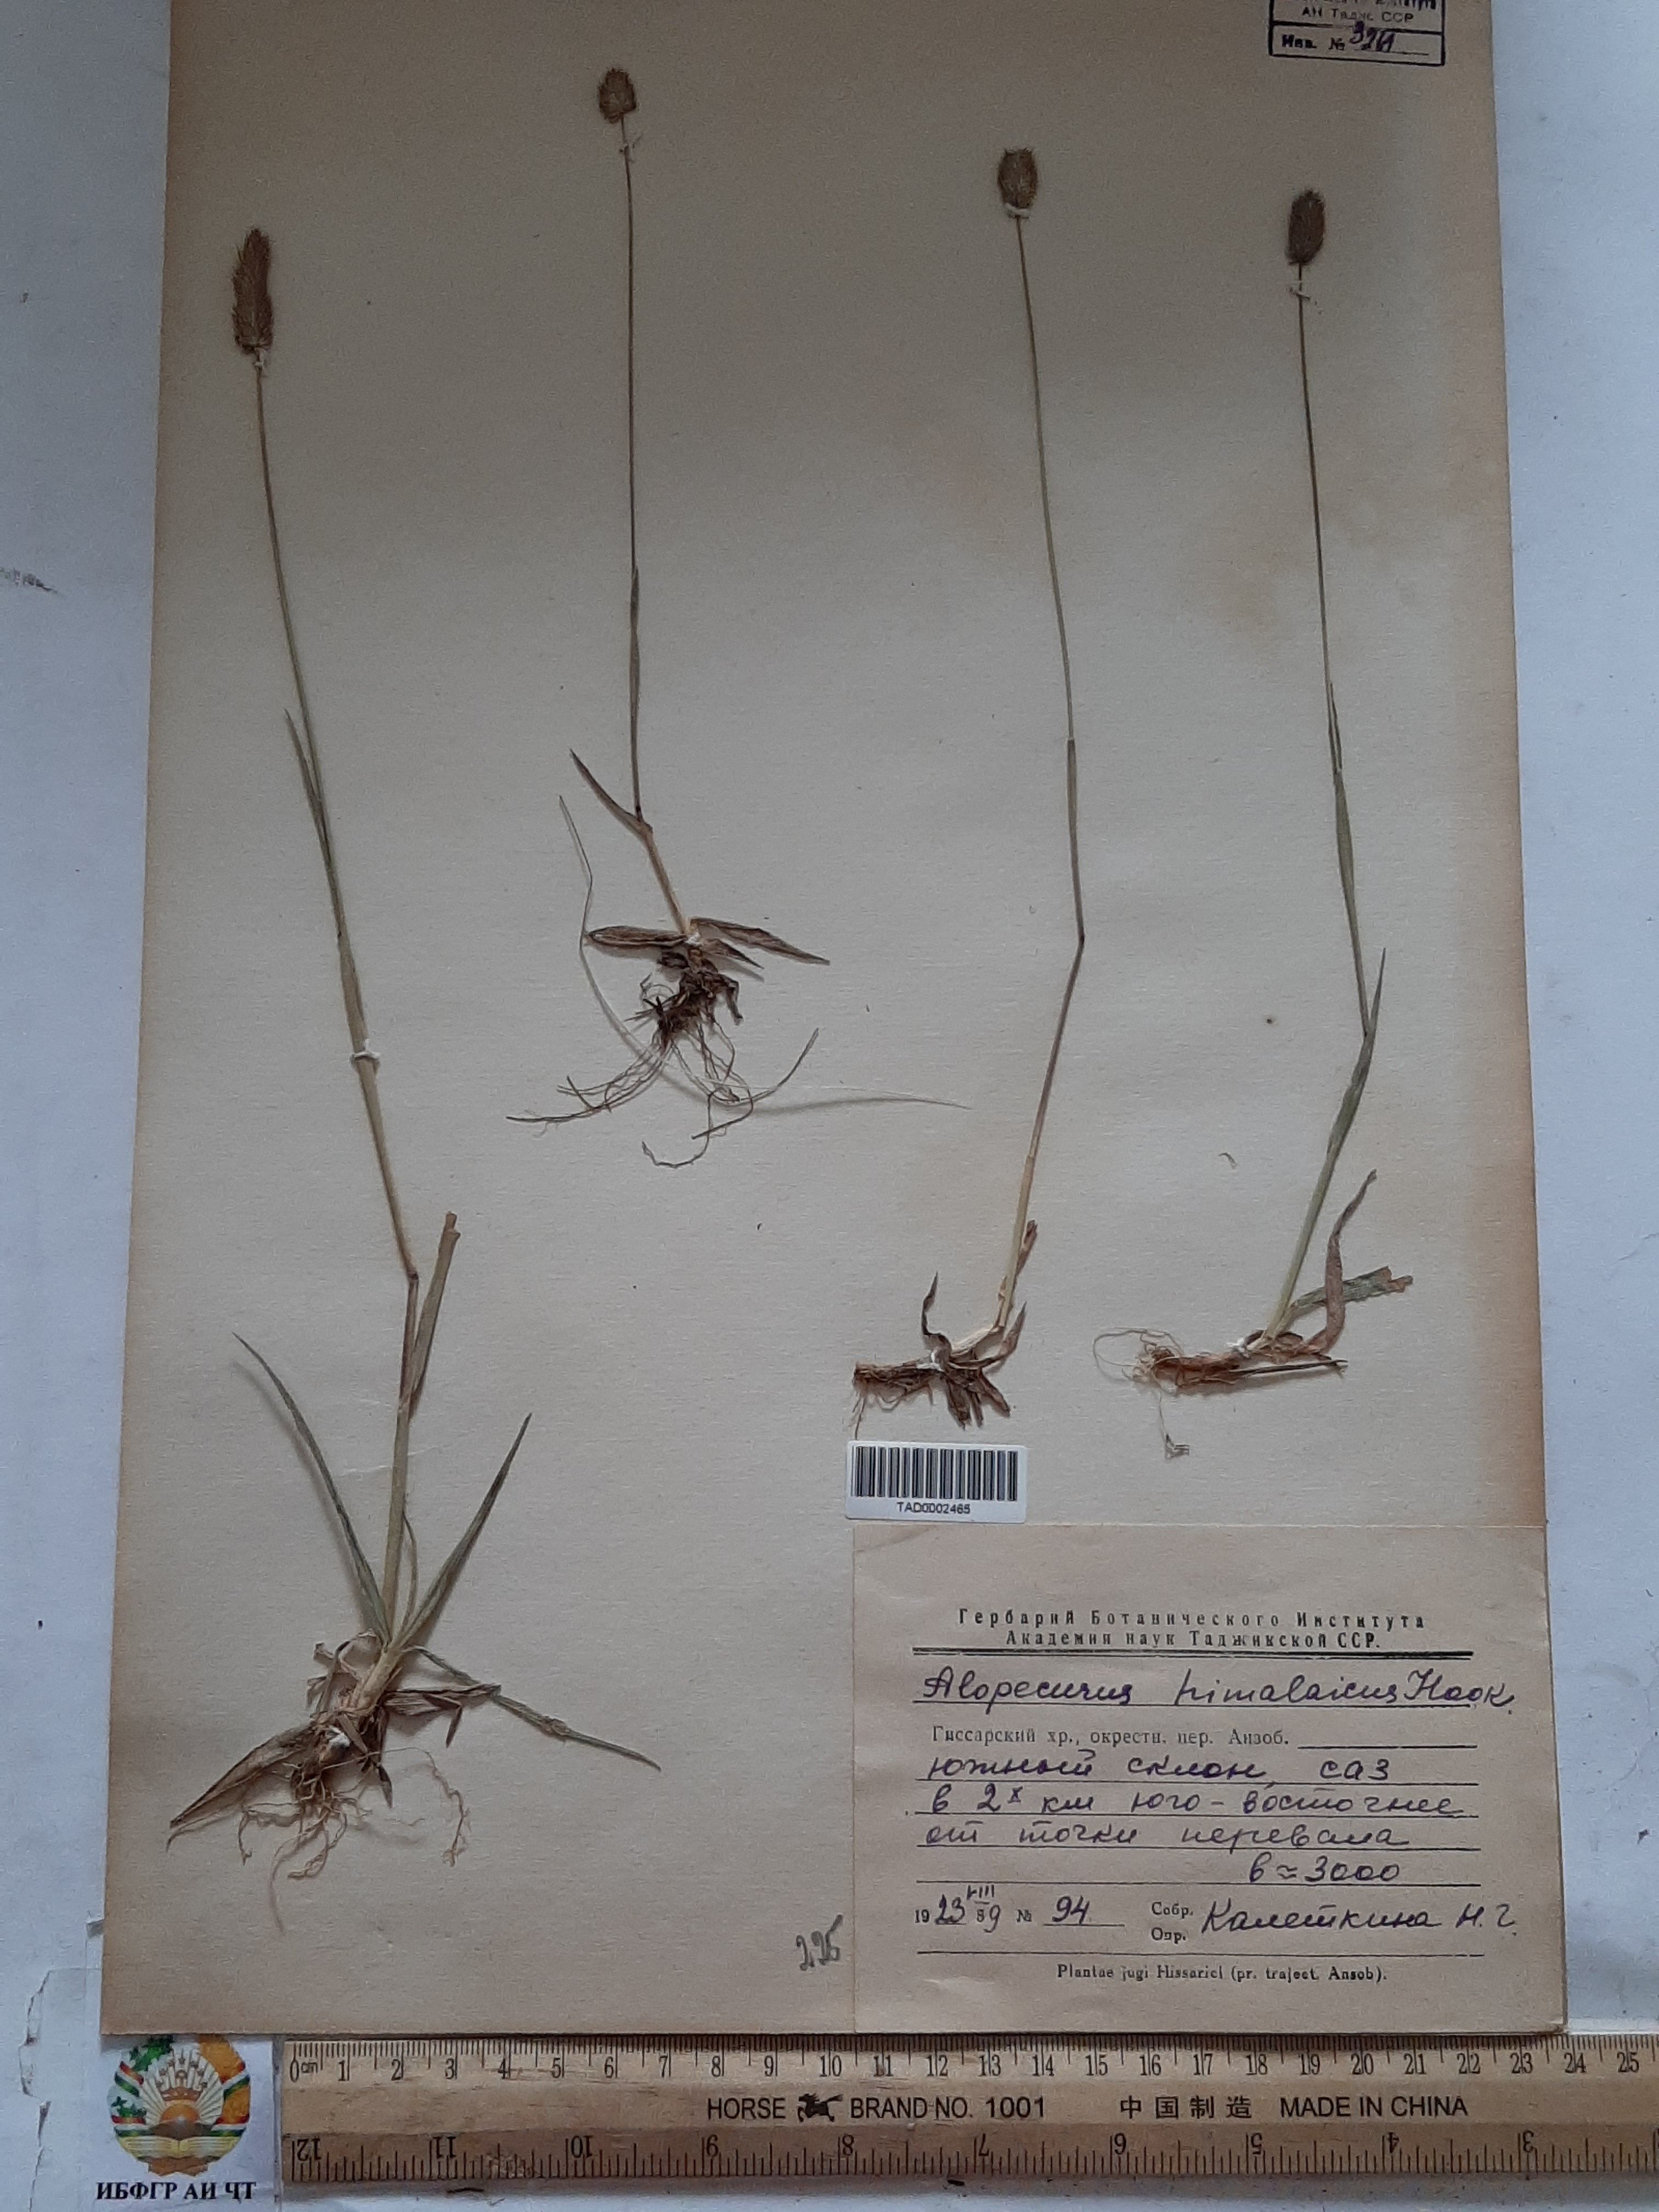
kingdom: Plantae
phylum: Tracheophyta
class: Liliopsida
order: Poales
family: Poaceae
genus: Alopecurus
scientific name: Alopecurus himalaicus
